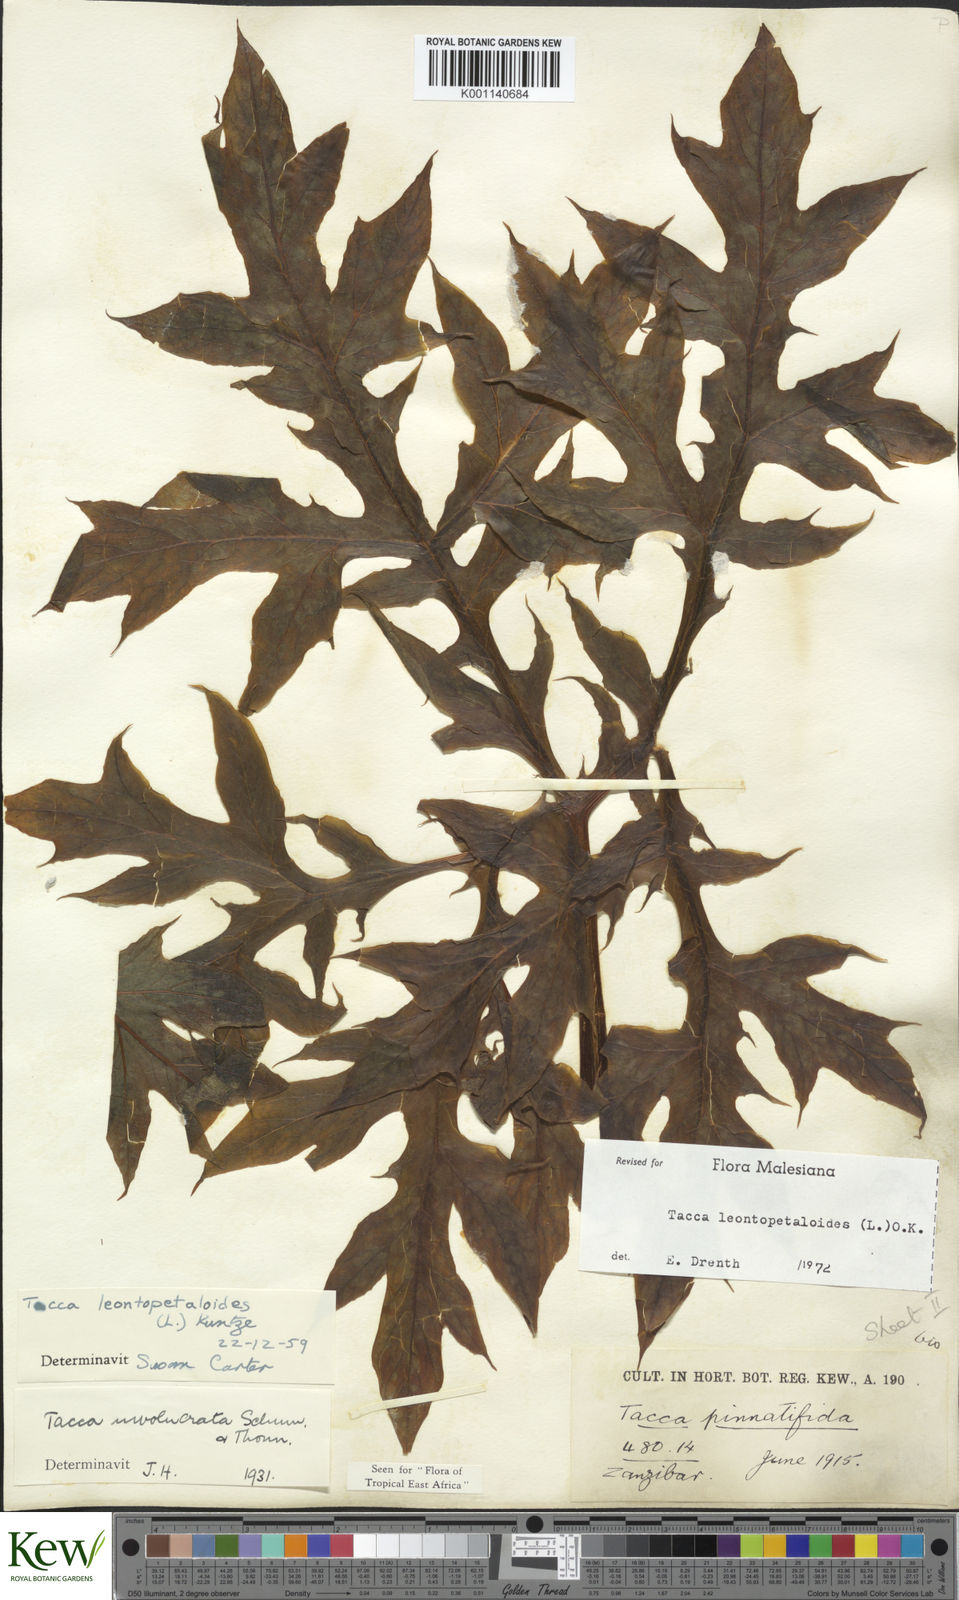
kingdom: Plantae
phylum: Tracheophyta
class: Liliopsida
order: Dioscoreales
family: Dioscoreaceae
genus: Tacca
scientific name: Tacca leontopetaloides
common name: Arrowroot
